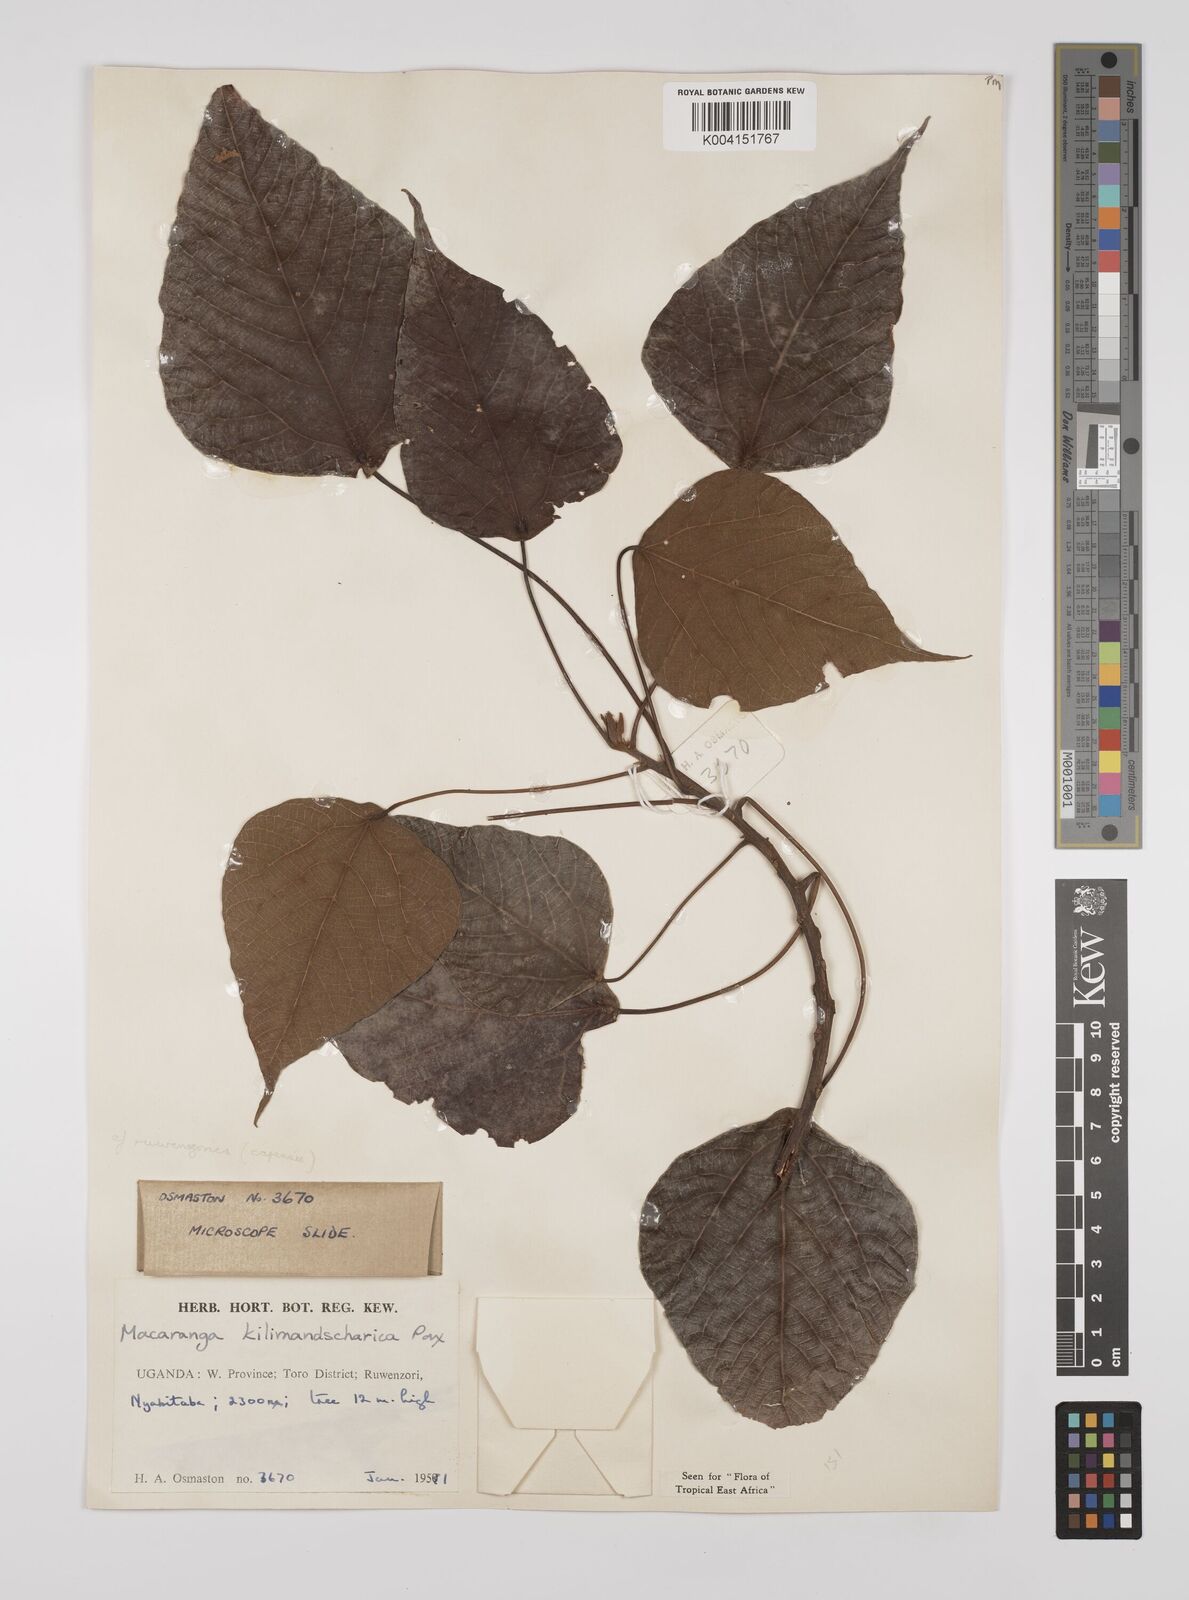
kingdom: Plantae
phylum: Tracheophyta
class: Magnoliopsida
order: Malpighiales
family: Euphorbiaceae
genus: Macaranga
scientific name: Macaranga kilimandscharica
